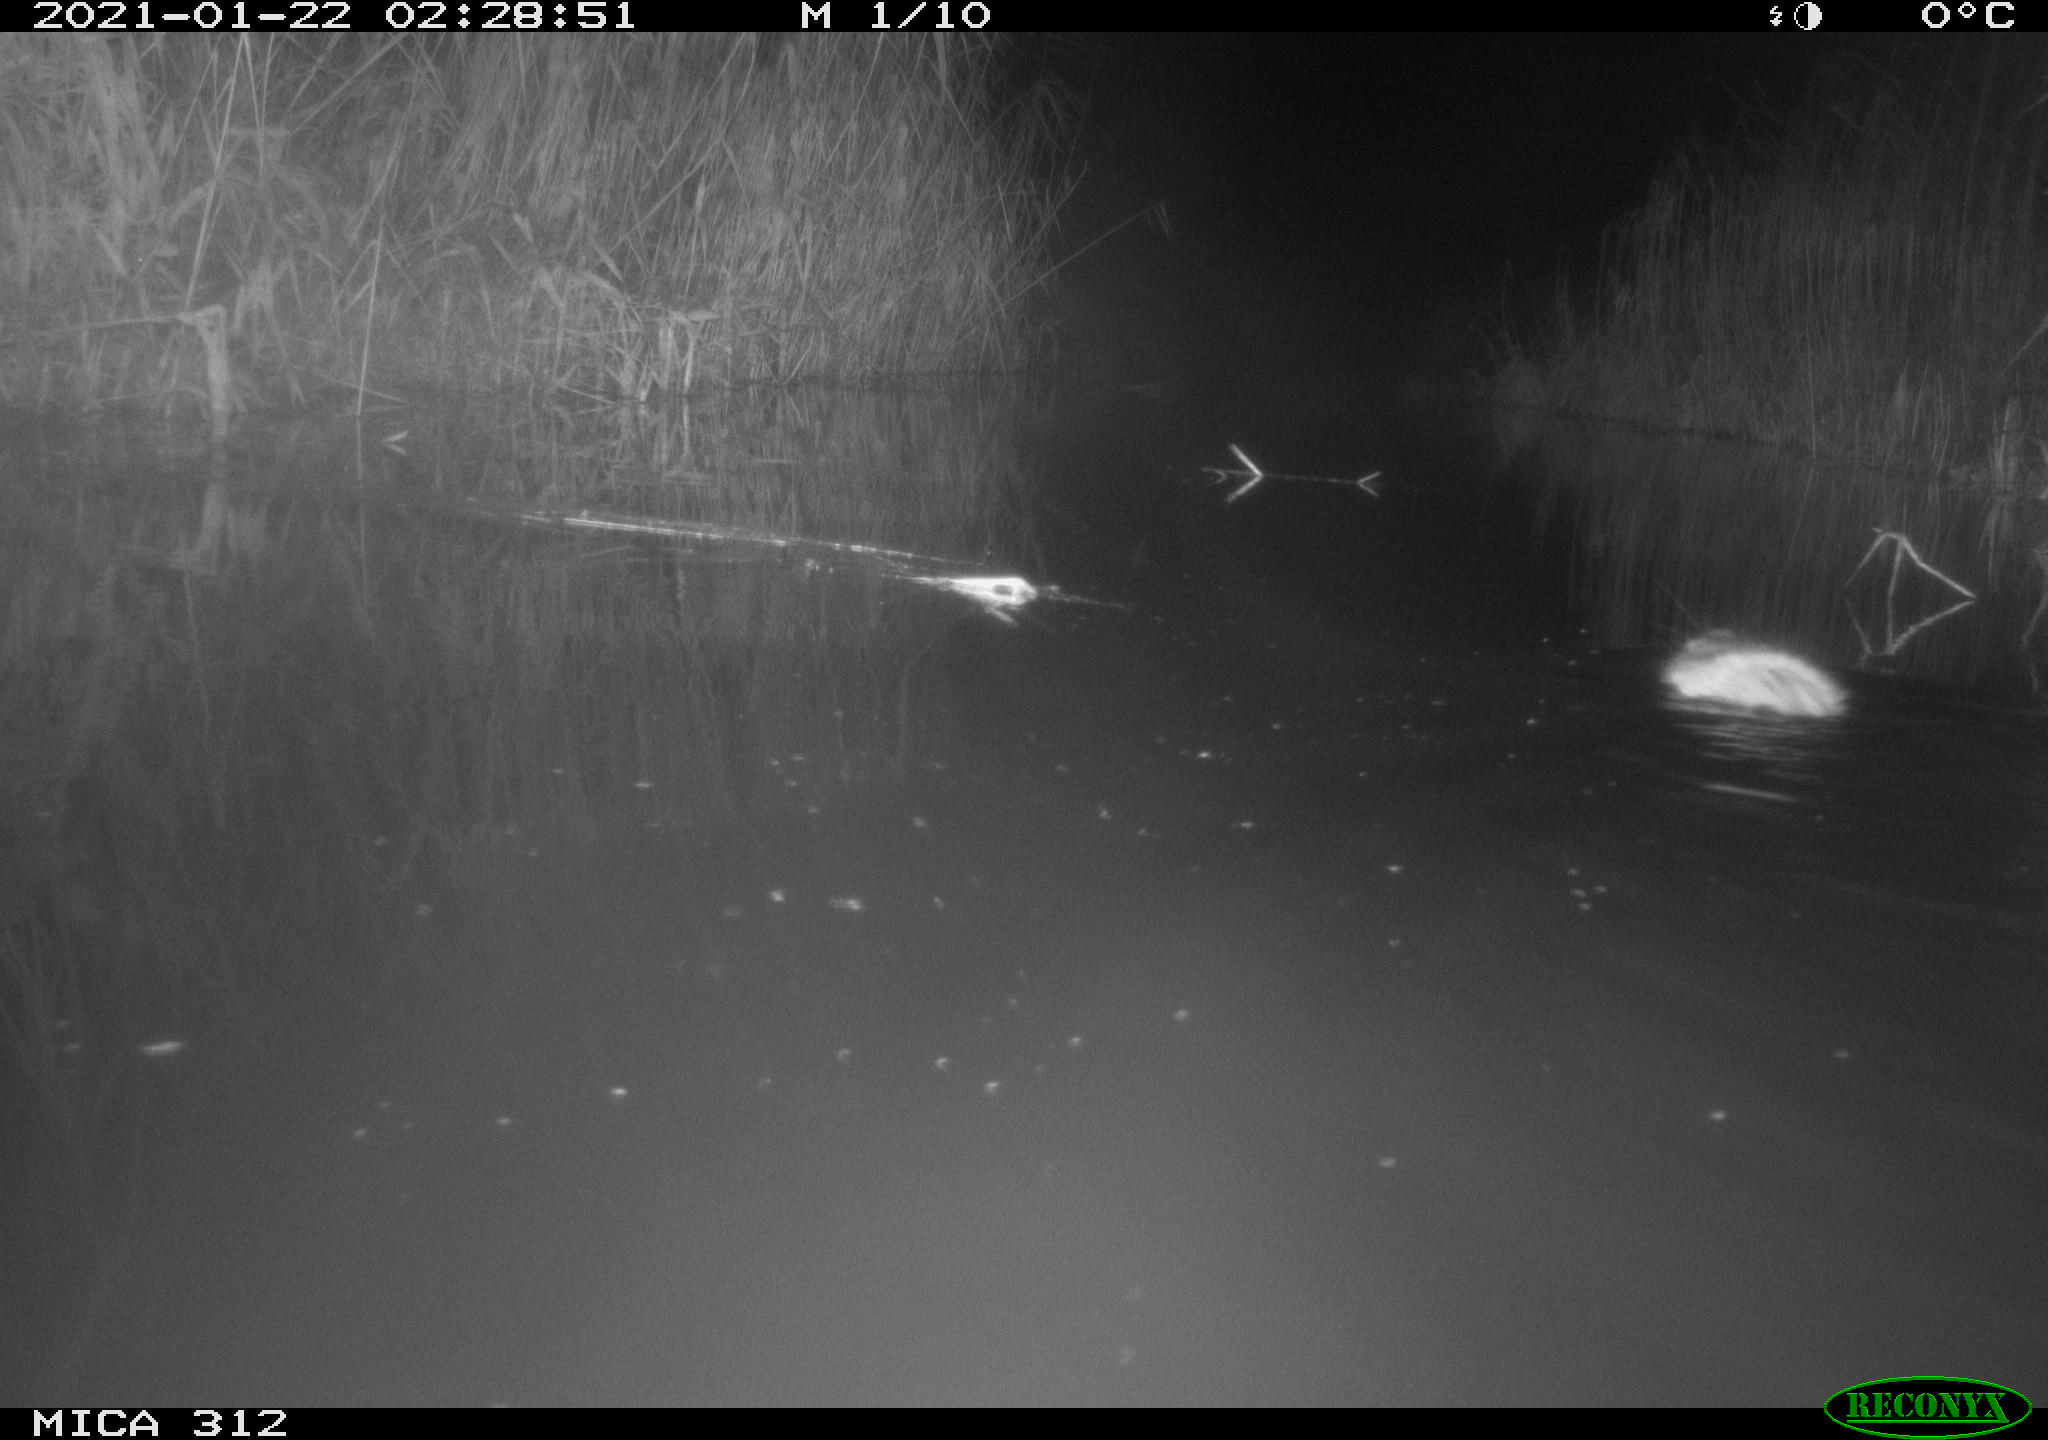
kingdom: Animalia
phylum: Chordata
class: Mammalia
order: Rodentia
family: Cricetidae
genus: Ondatra
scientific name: Ondatra zibethicus
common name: Muskrat
